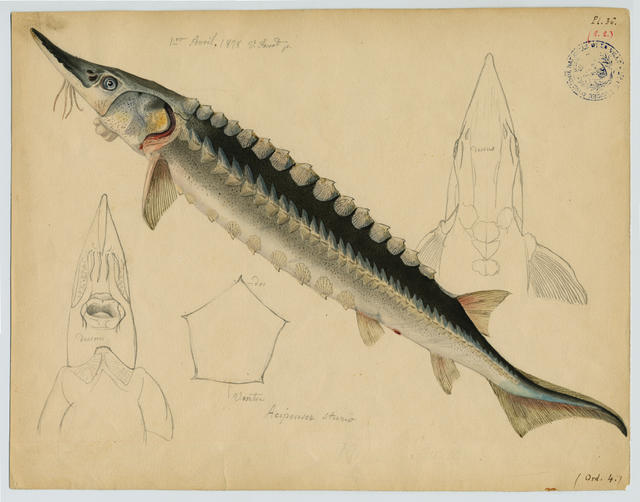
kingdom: Animalia
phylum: Chordata
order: Acipenseriformes
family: Acipenseridae
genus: Acipenser
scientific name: Acipenser sturio
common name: Sturgeon
